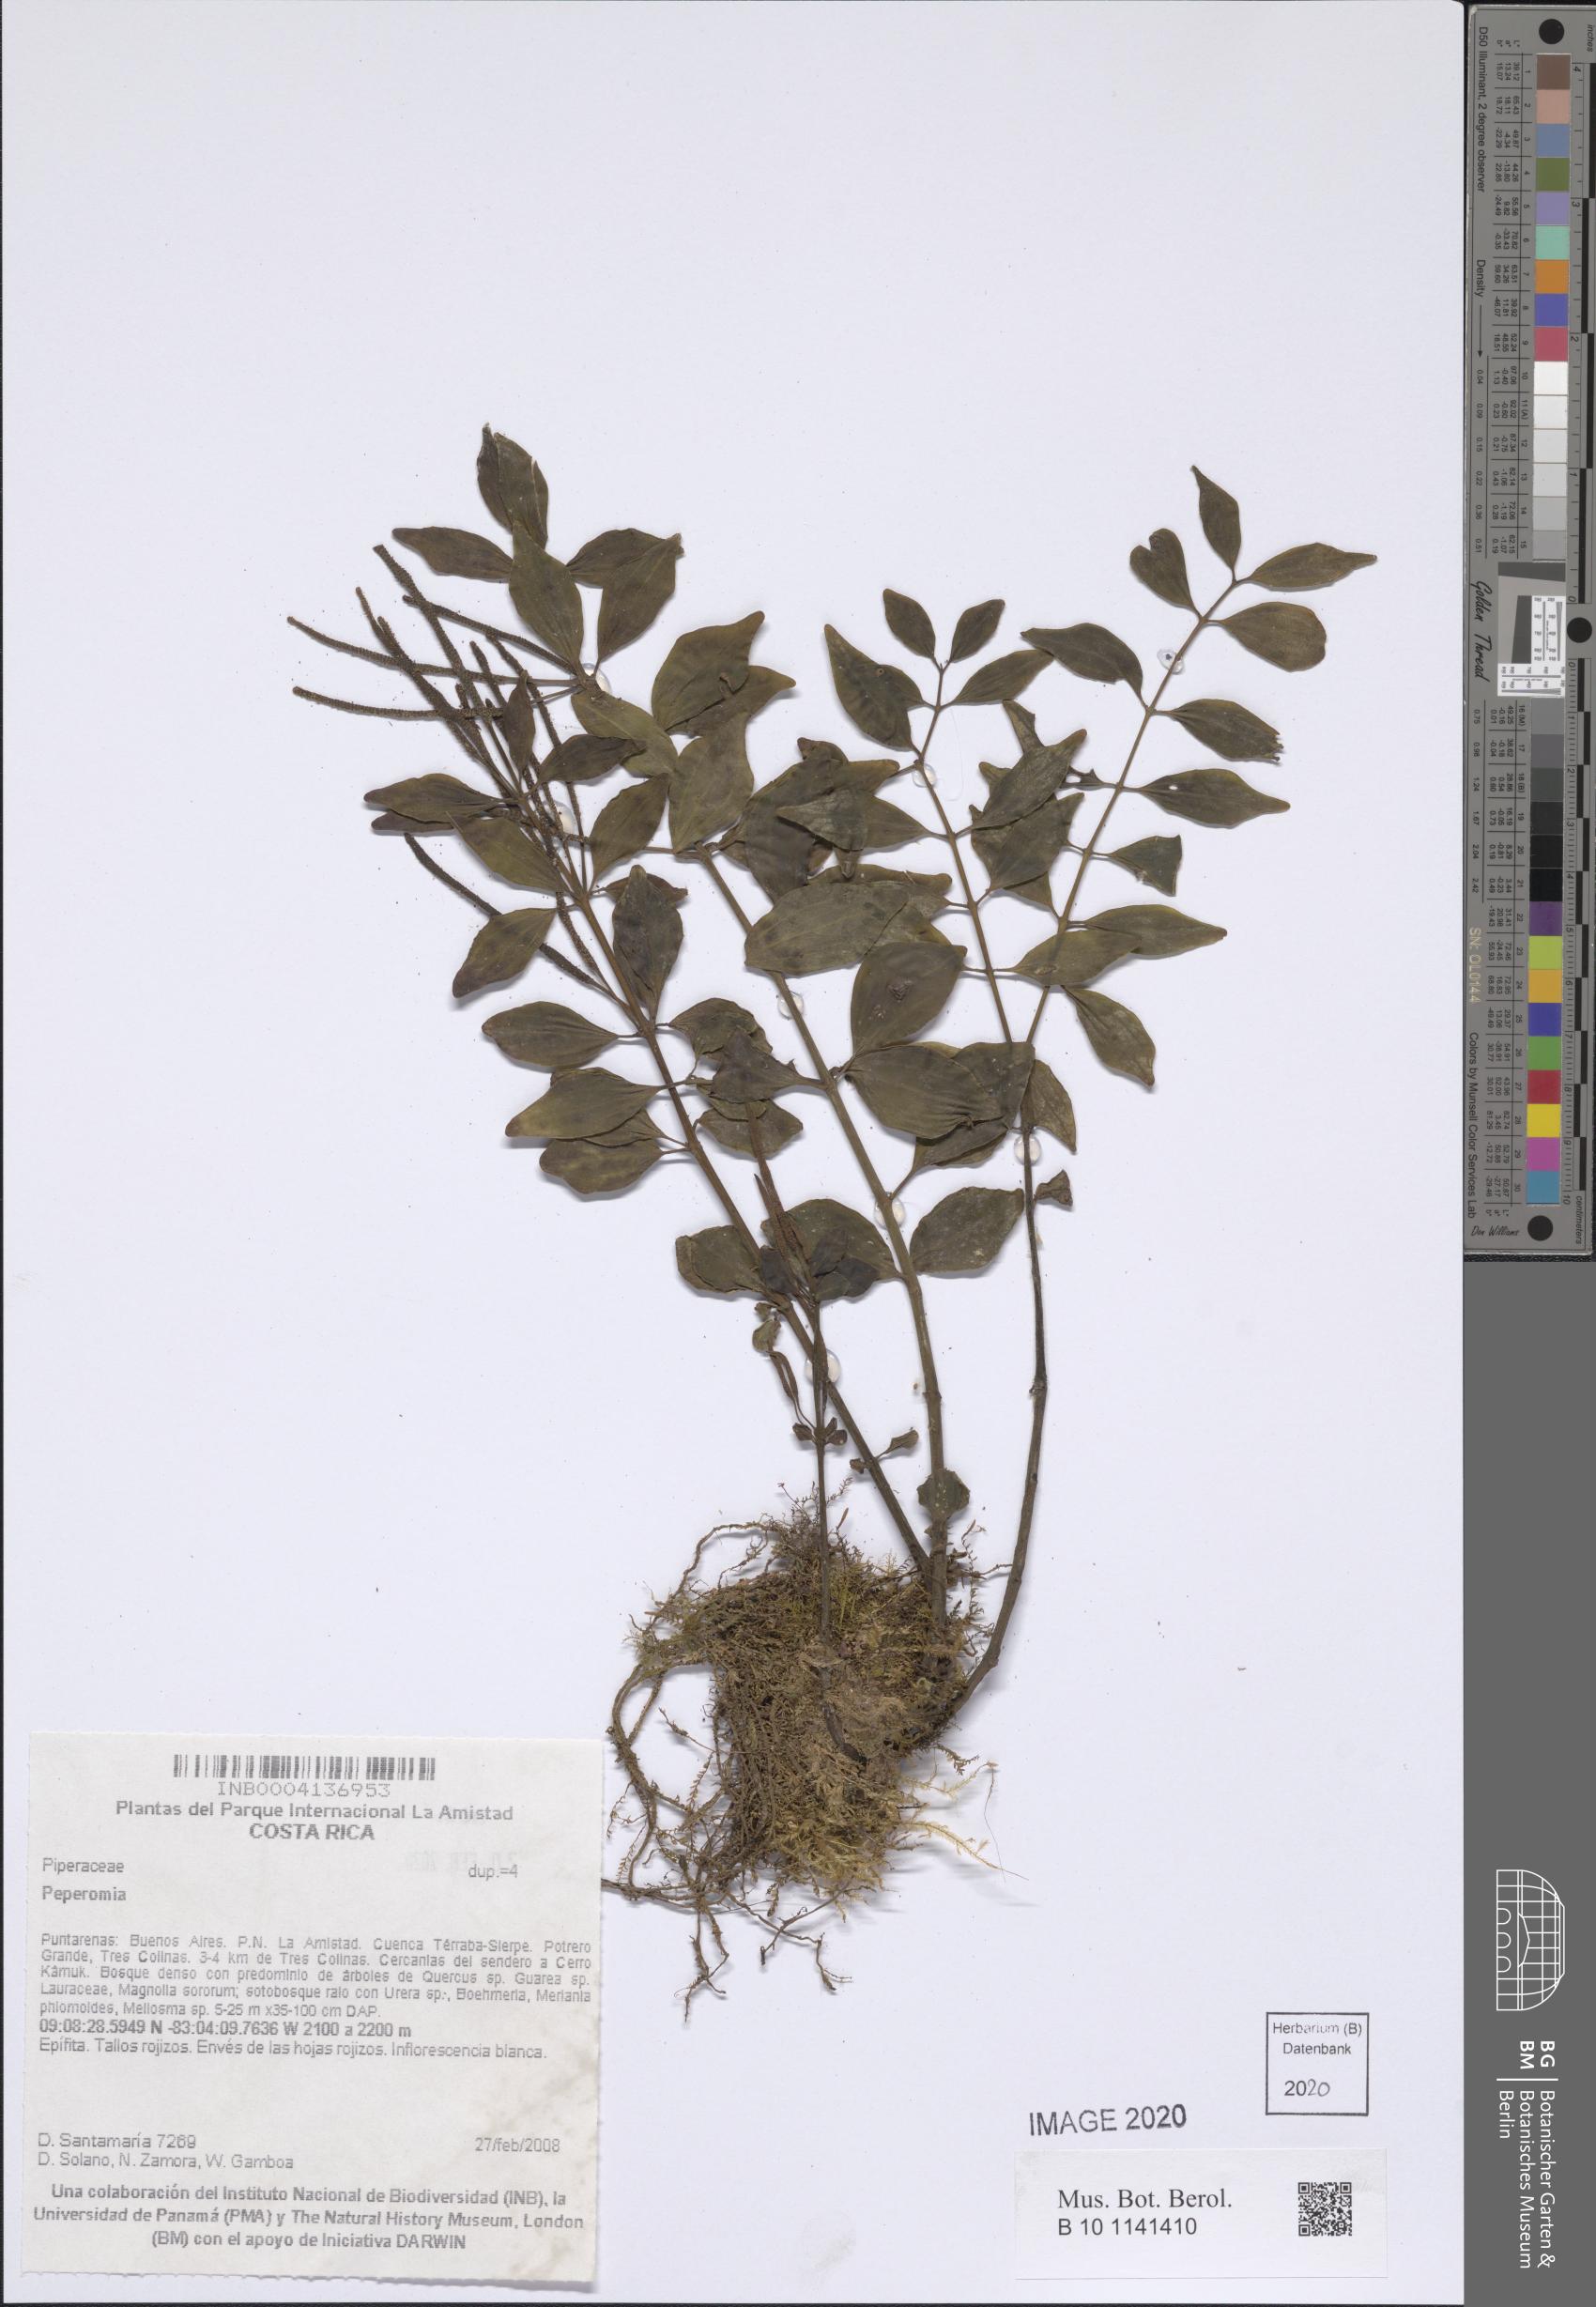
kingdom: Plantae
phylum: Tracheophyta
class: Magnoliopsida
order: Piperales
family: Piperaceae
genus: Peperomia
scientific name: Peperomia
